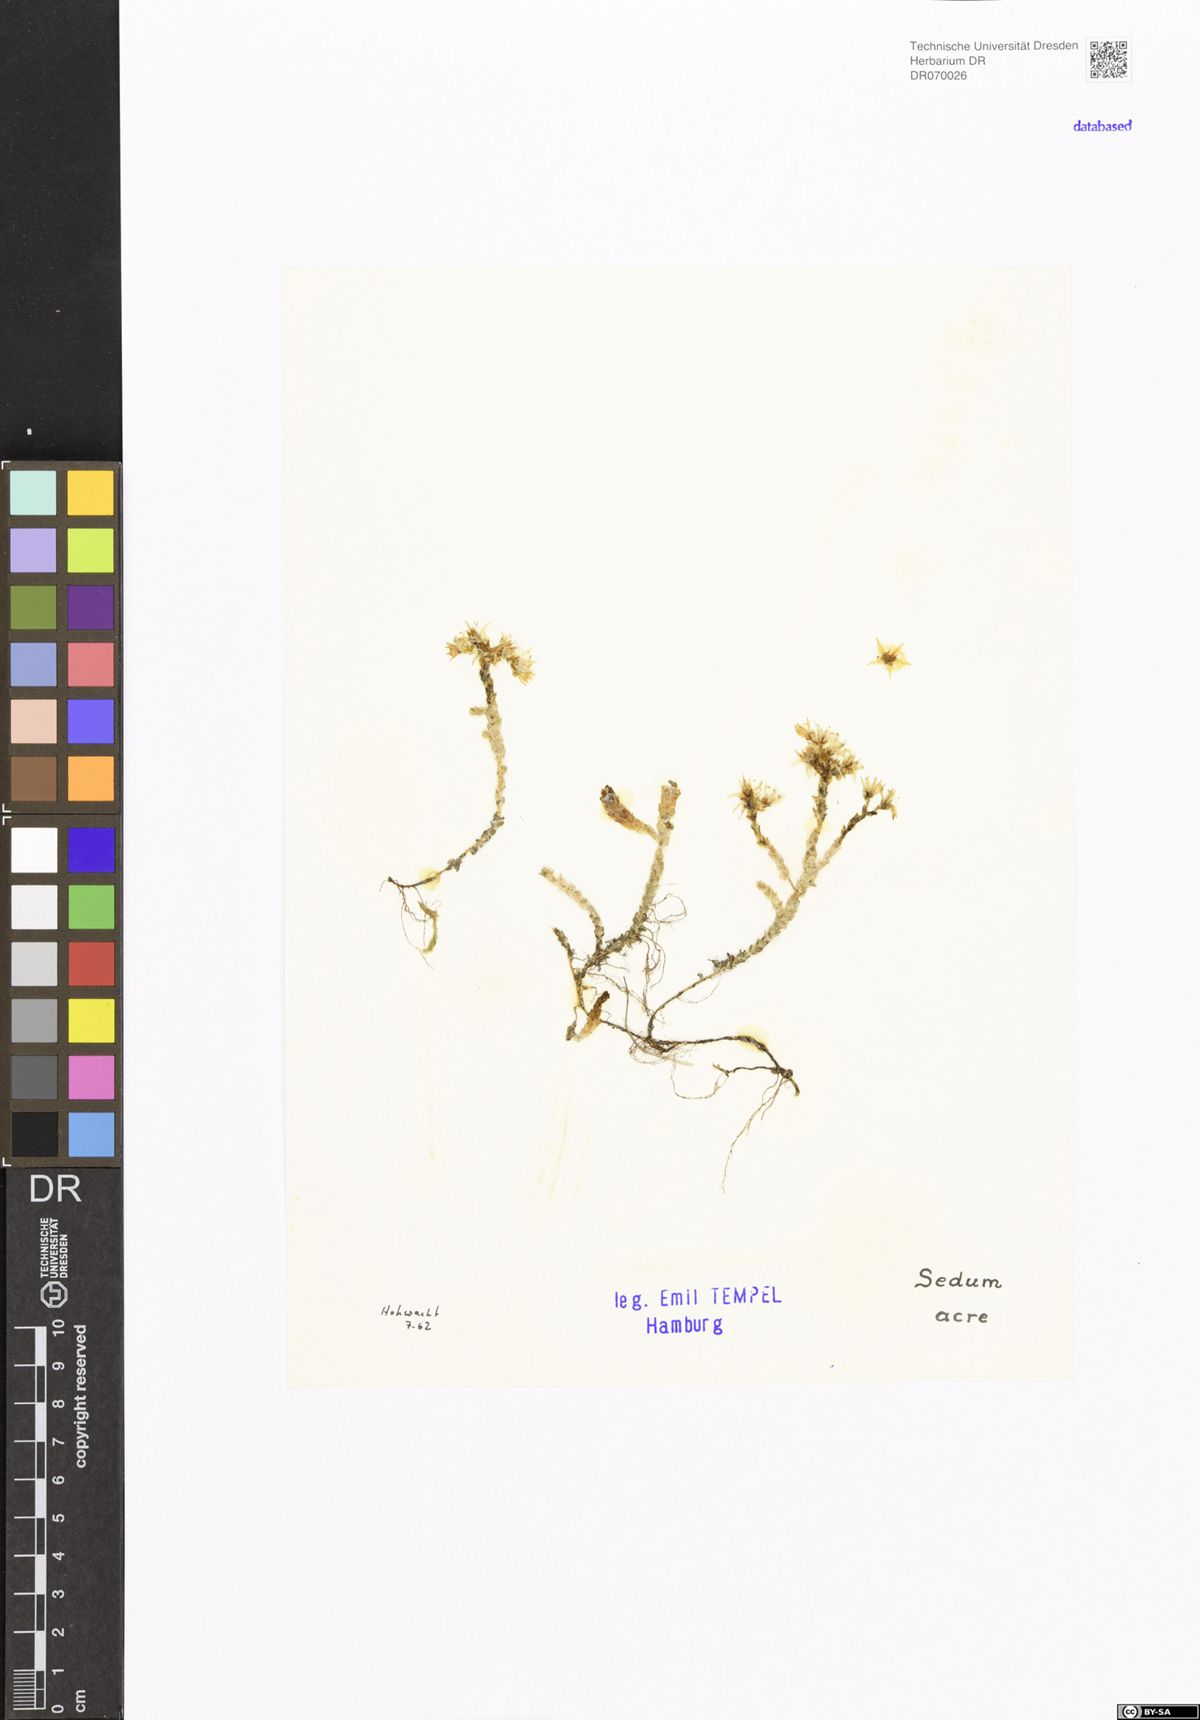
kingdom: Plantae
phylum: Tracheophyta
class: Magnoliopsida
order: Saxifragales
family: Crassulaceae
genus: Sedum
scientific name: Sedum acre
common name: Biting stonecrop
